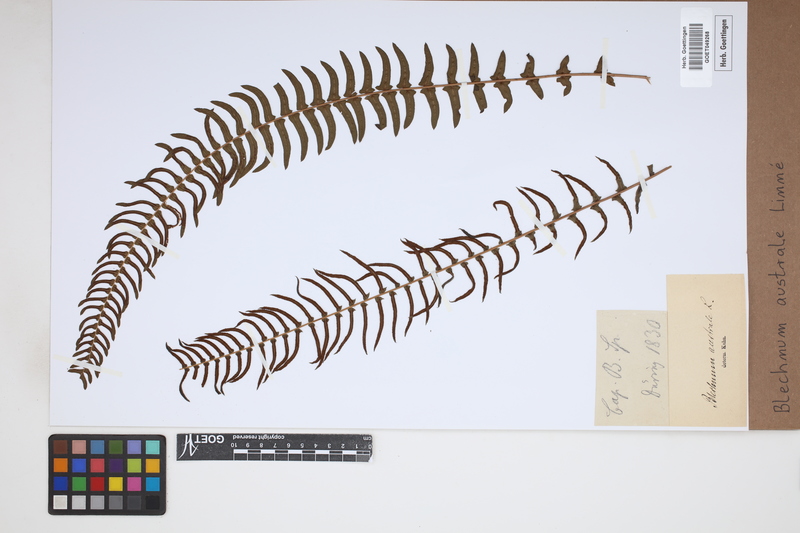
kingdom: Plantae
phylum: Tracheophyta
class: Polypodiopsida
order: Polypodiales
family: Blechnaceae
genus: Blechnum
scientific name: Blechnum australe
